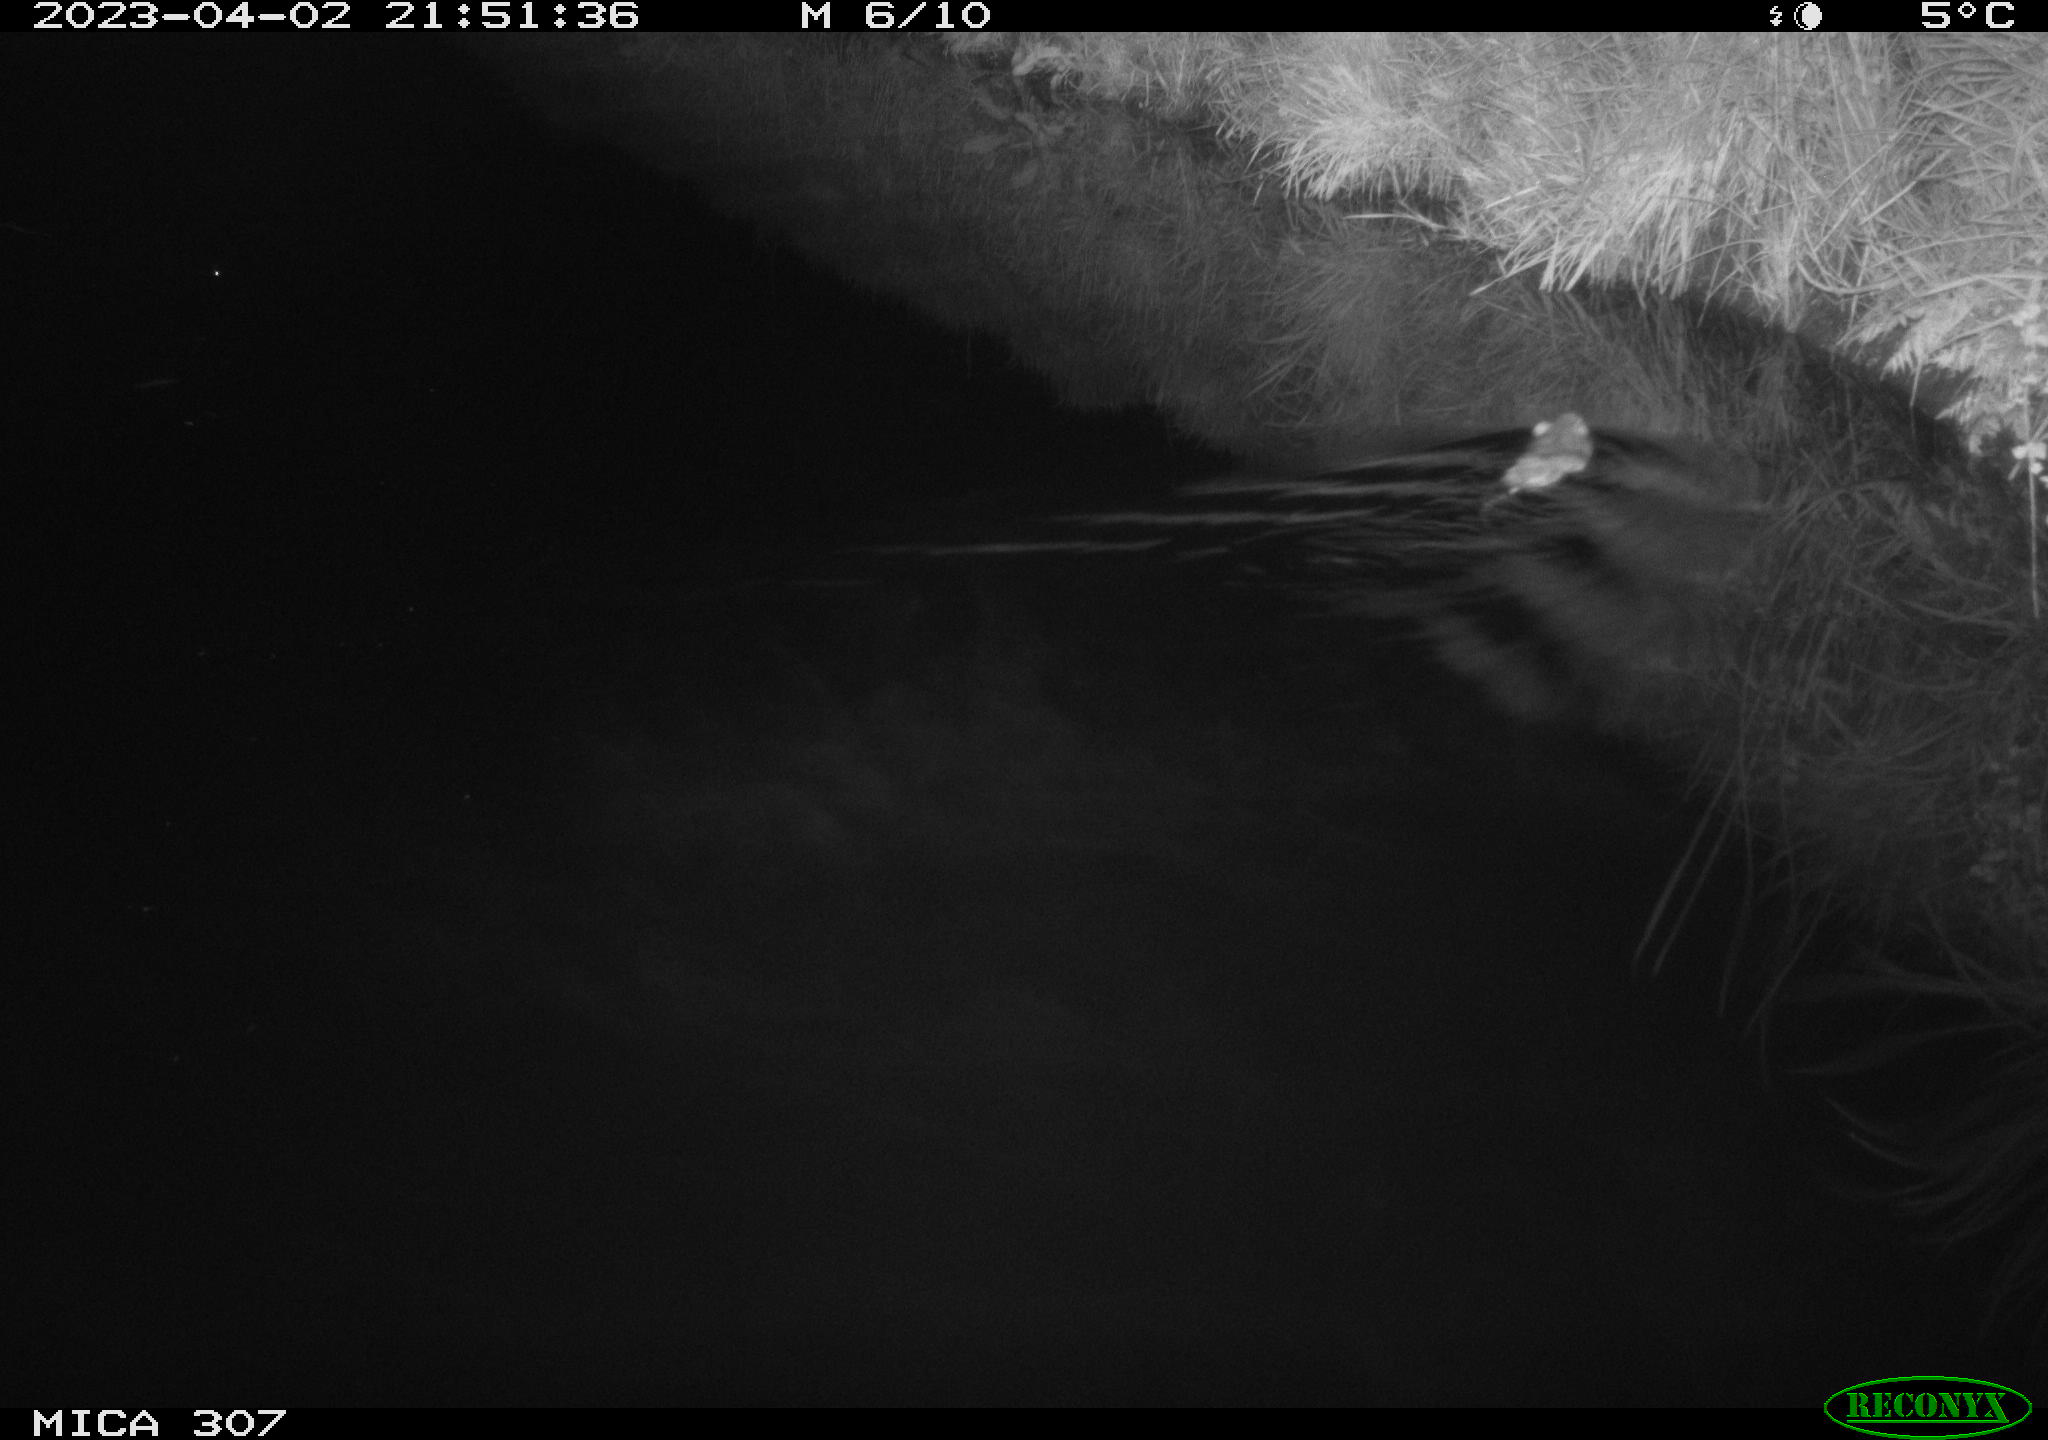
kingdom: Animalia
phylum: Chordata
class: Mammalia
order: Rodentia
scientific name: Rodentia
